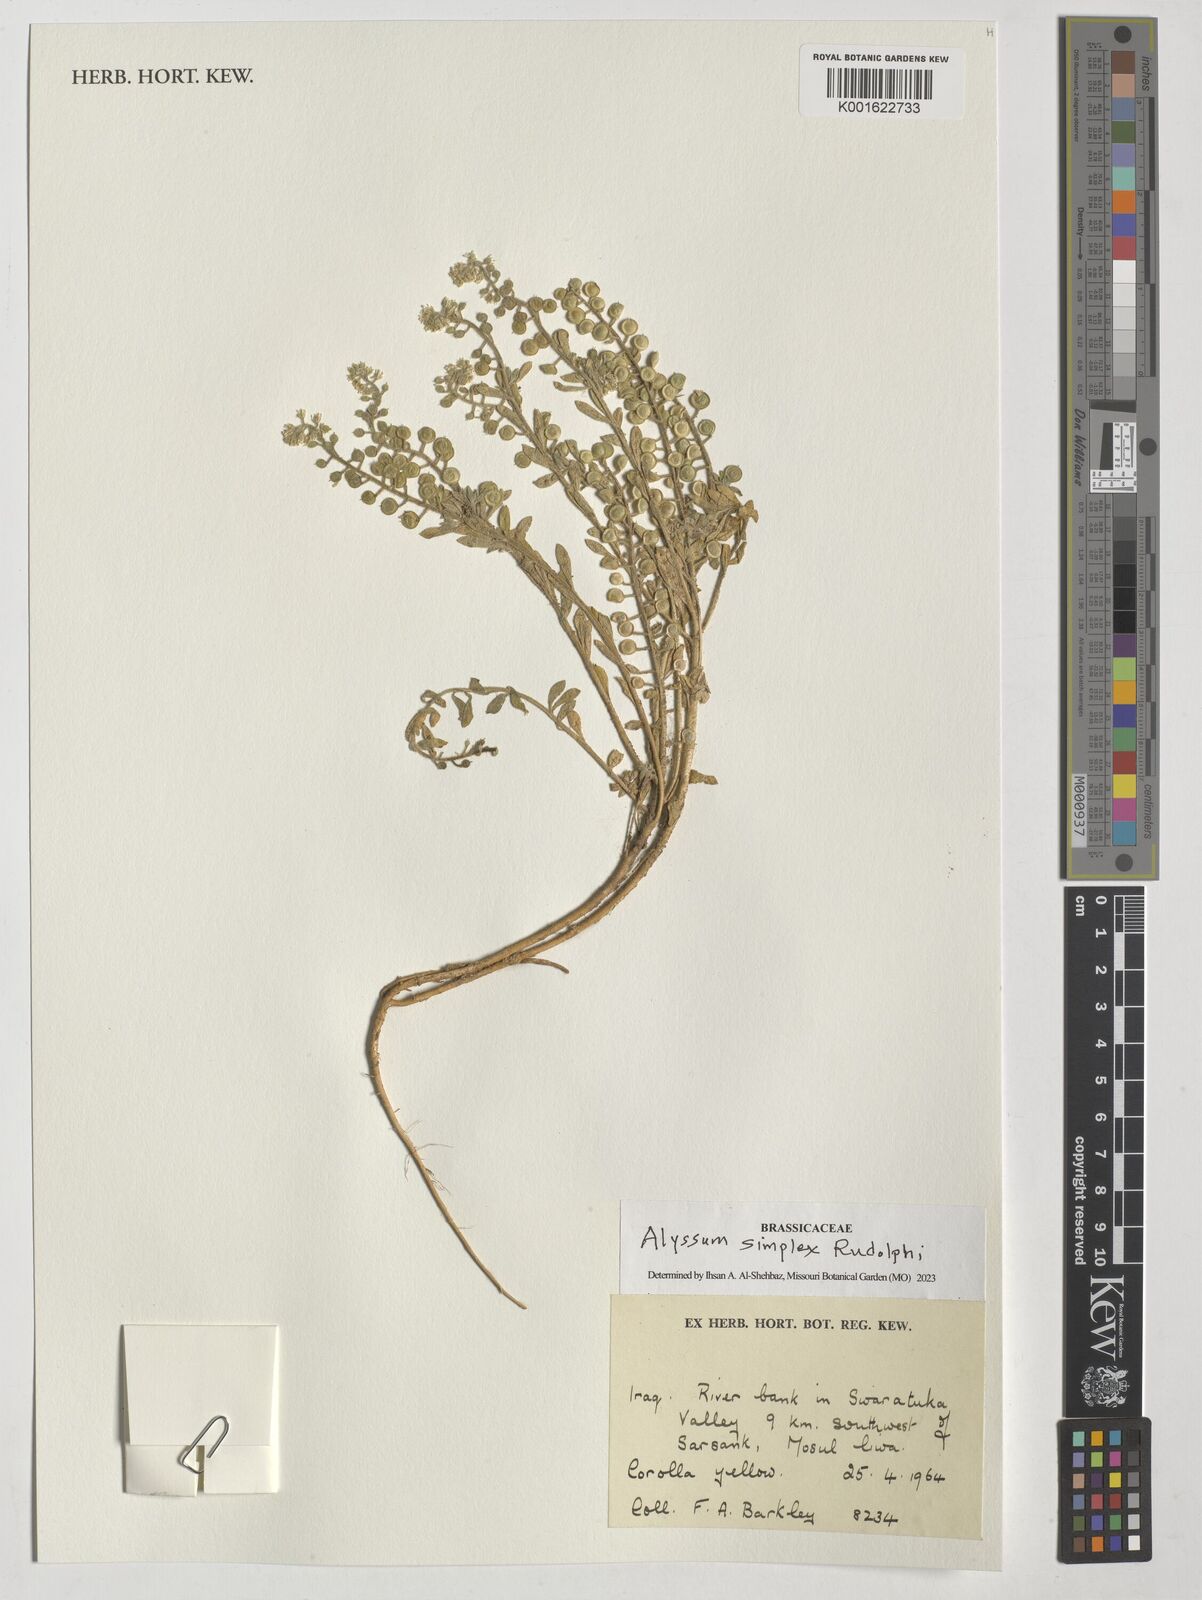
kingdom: Plantae
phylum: Tracheophyta
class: Magnoliopsida
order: Brassicales
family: Brassicaceae
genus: Alyssum
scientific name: Alyssum simplex
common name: Alyssum
